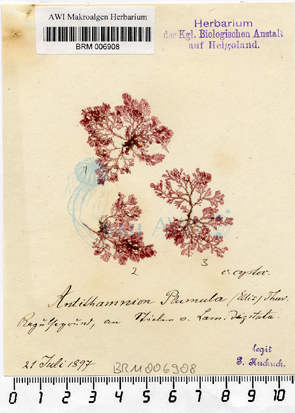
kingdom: Plantae
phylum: Rhodophyta
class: Florideophyceae
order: Ceramiales
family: Ceramiaceae
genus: Pterothamnion
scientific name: Pterothamnion plumula
